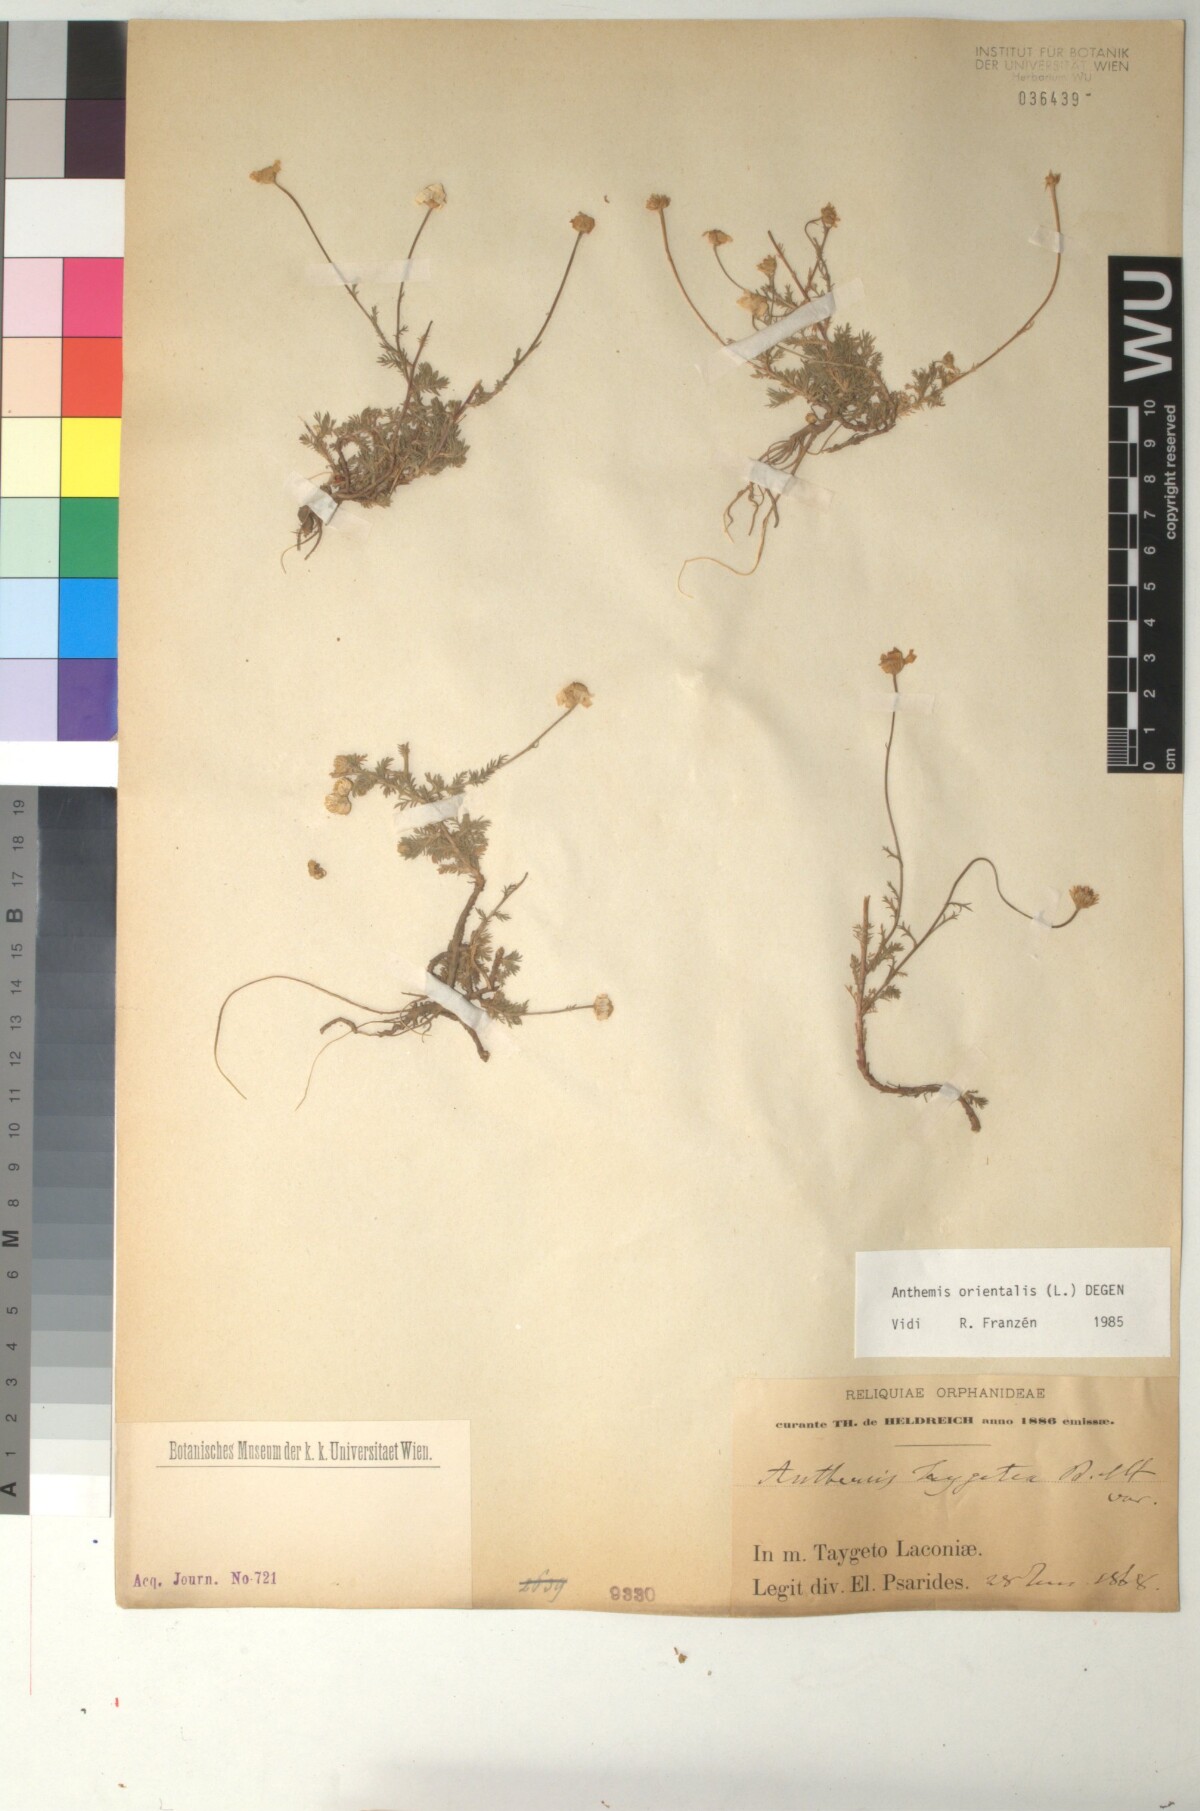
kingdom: Plantae
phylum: Tracheophyta
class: Magnoliopsida
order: Asterales
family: Asteraceae
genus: Anthemis
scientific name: Anthemis orientalis
